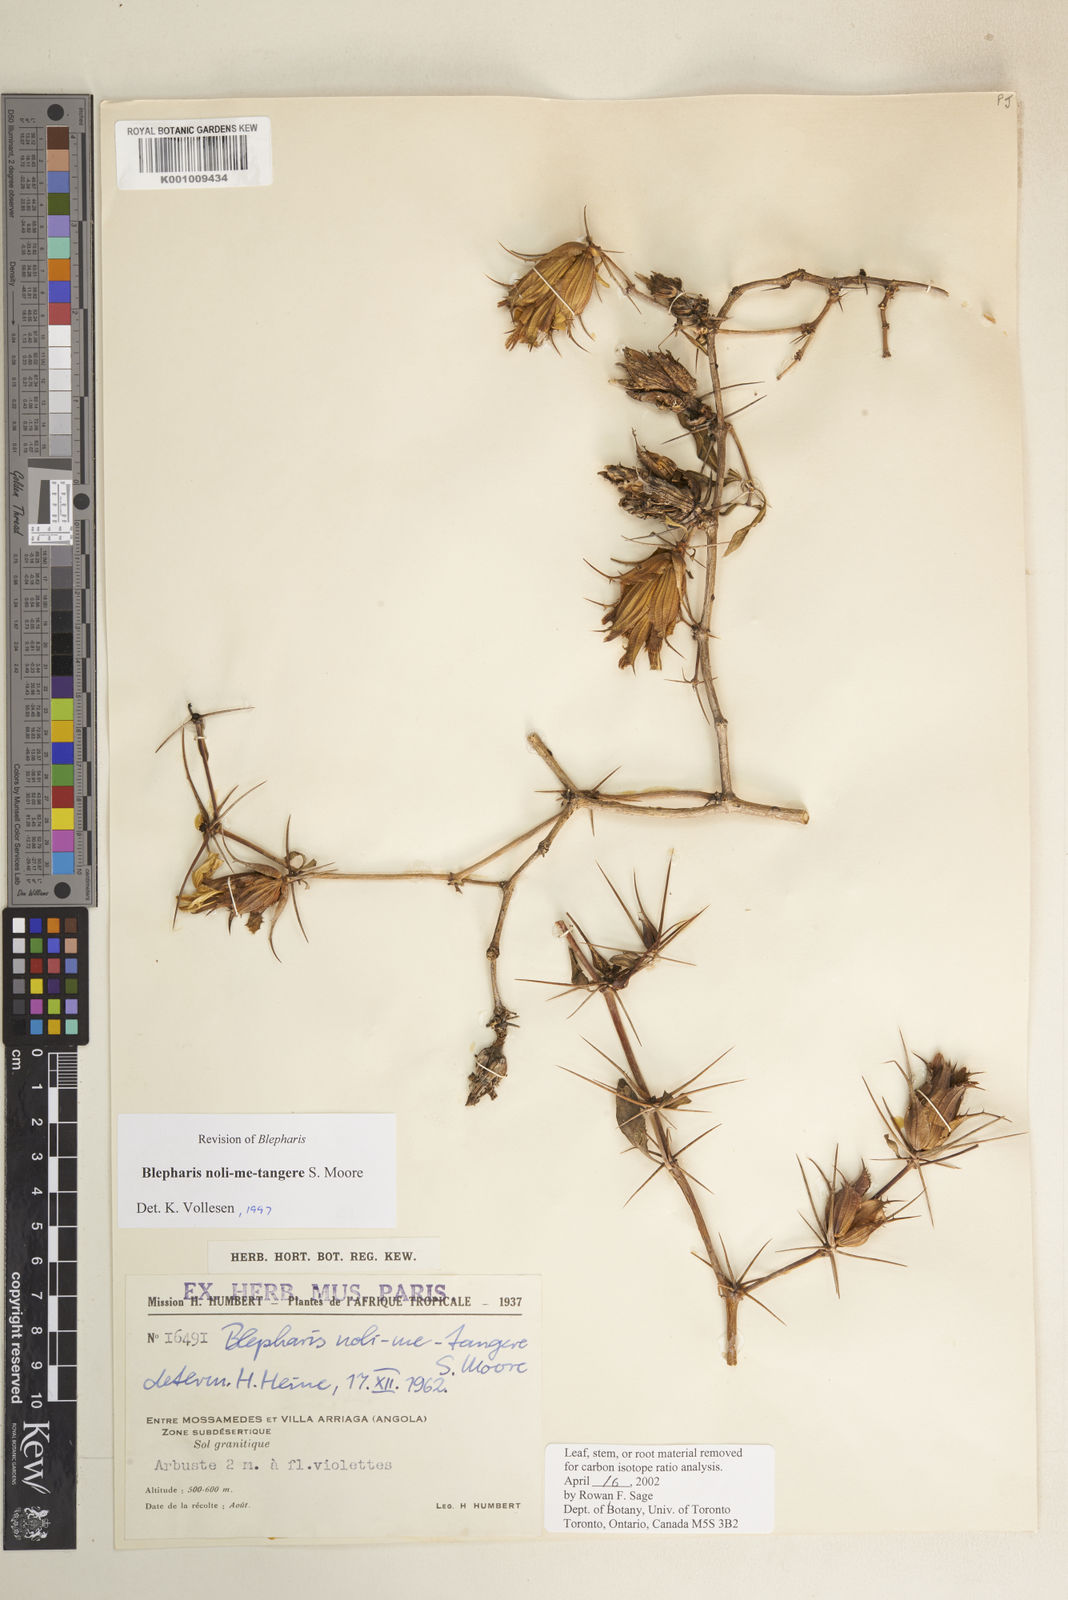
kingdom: Plantae
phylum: Tracheophyta
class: Magnoliopsida
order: Lamiales
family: Acanthaceae
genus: Blepharis
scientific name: Blepharis noli-me-tangere
